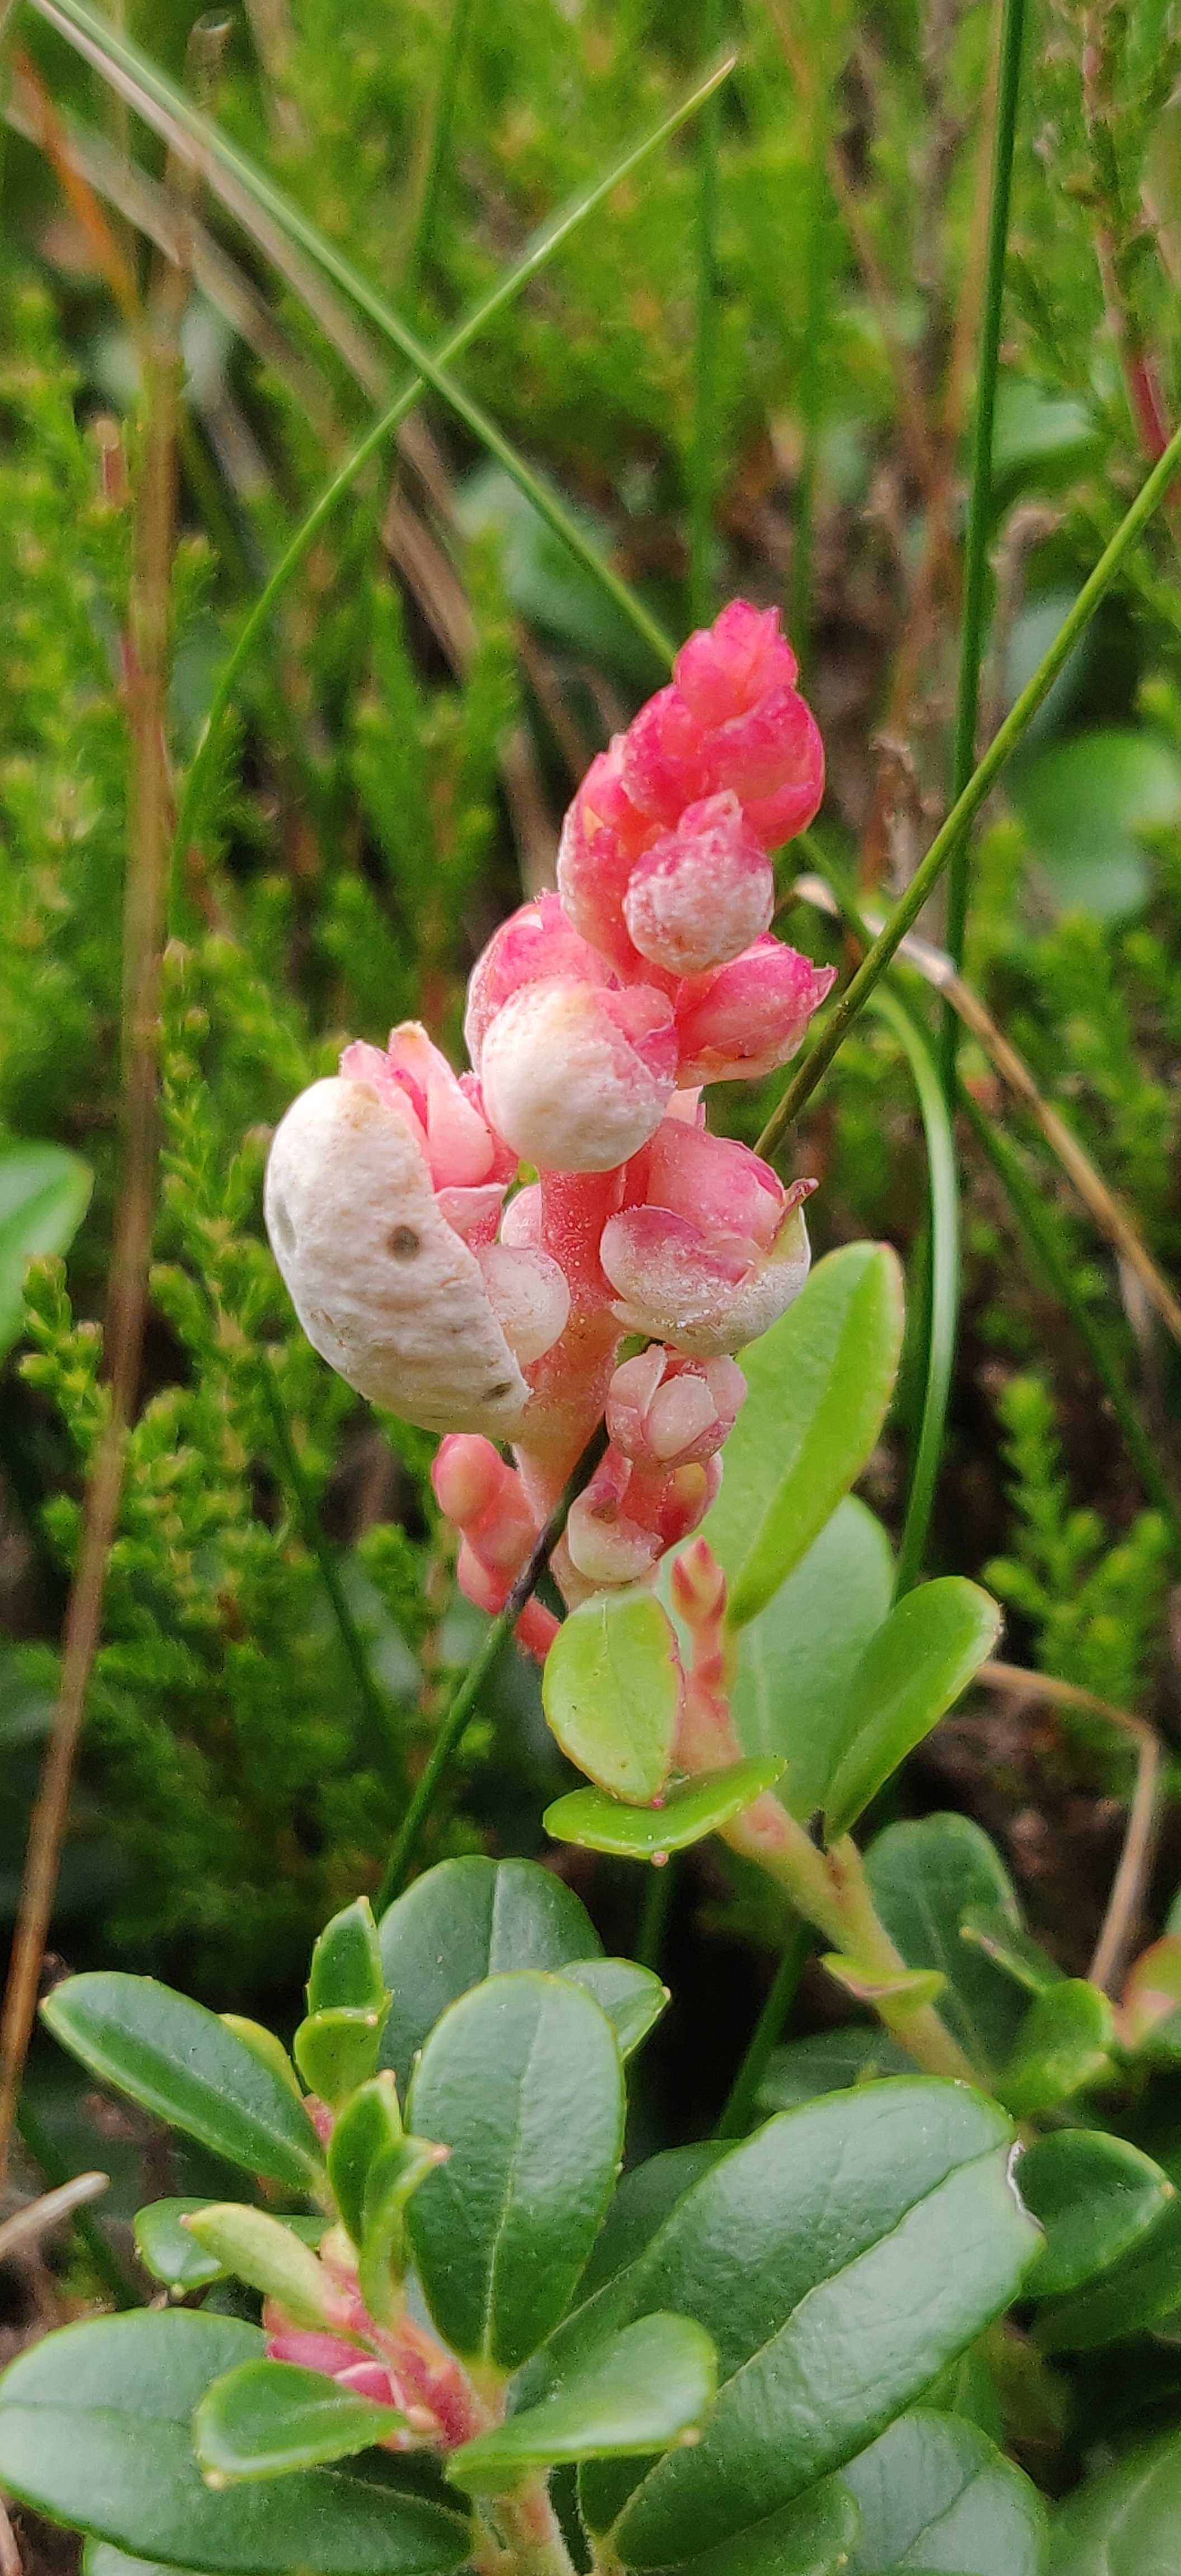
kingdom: Fungi
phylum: Basidiomycota
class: Exobasidiomycetes
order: Exobasidiales
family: Exobasidiaceae
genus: Exobasidium
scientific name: Exobasidium vaccinii
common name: tyttebærblad-bøllesvamp
